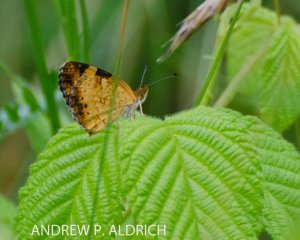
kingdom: Animalia
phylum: Arthropoda
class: Insecta
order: Lepidoptera
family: Nymphalidae
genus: Phyciodes
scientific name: Phyciodes tharos
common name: Northern Crescent
